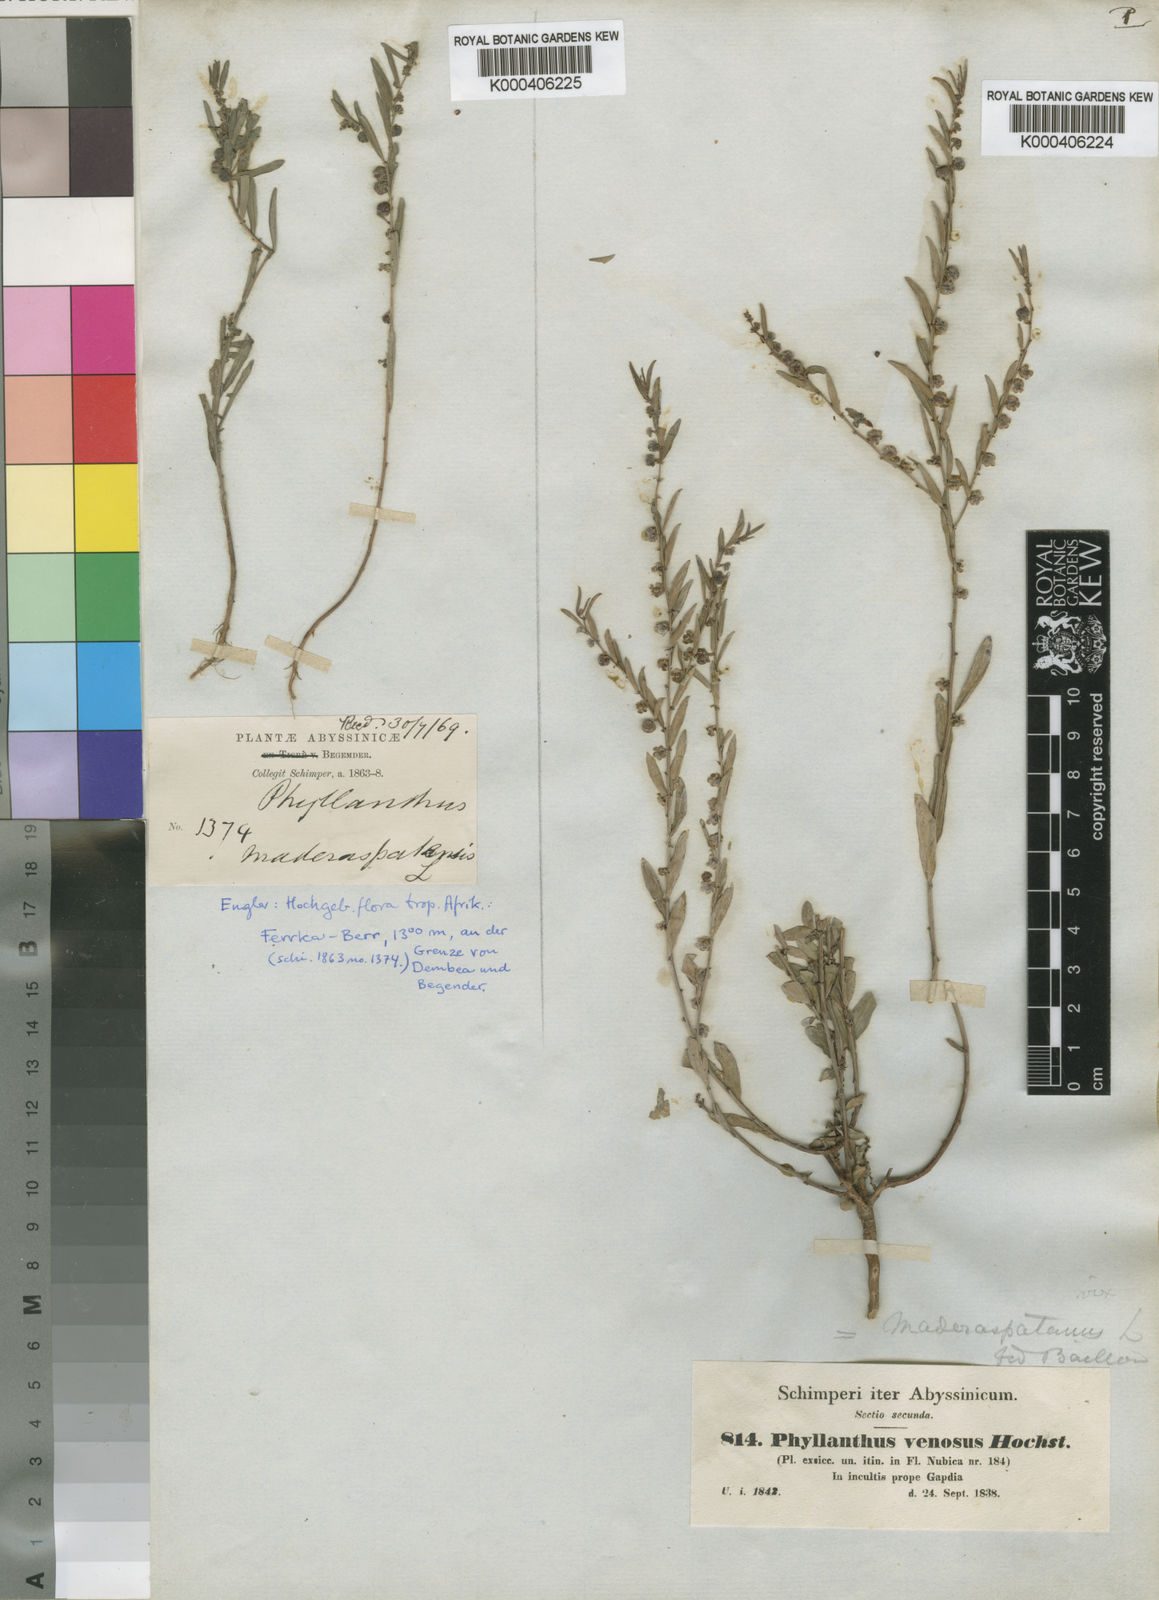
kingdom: Plantae
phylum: Tracheophyta
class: Magnoliopsida
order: Malpighiales
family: Phyllanthaceae
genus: Phyllanthus
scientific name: Phyllanthus maderaspatensis
